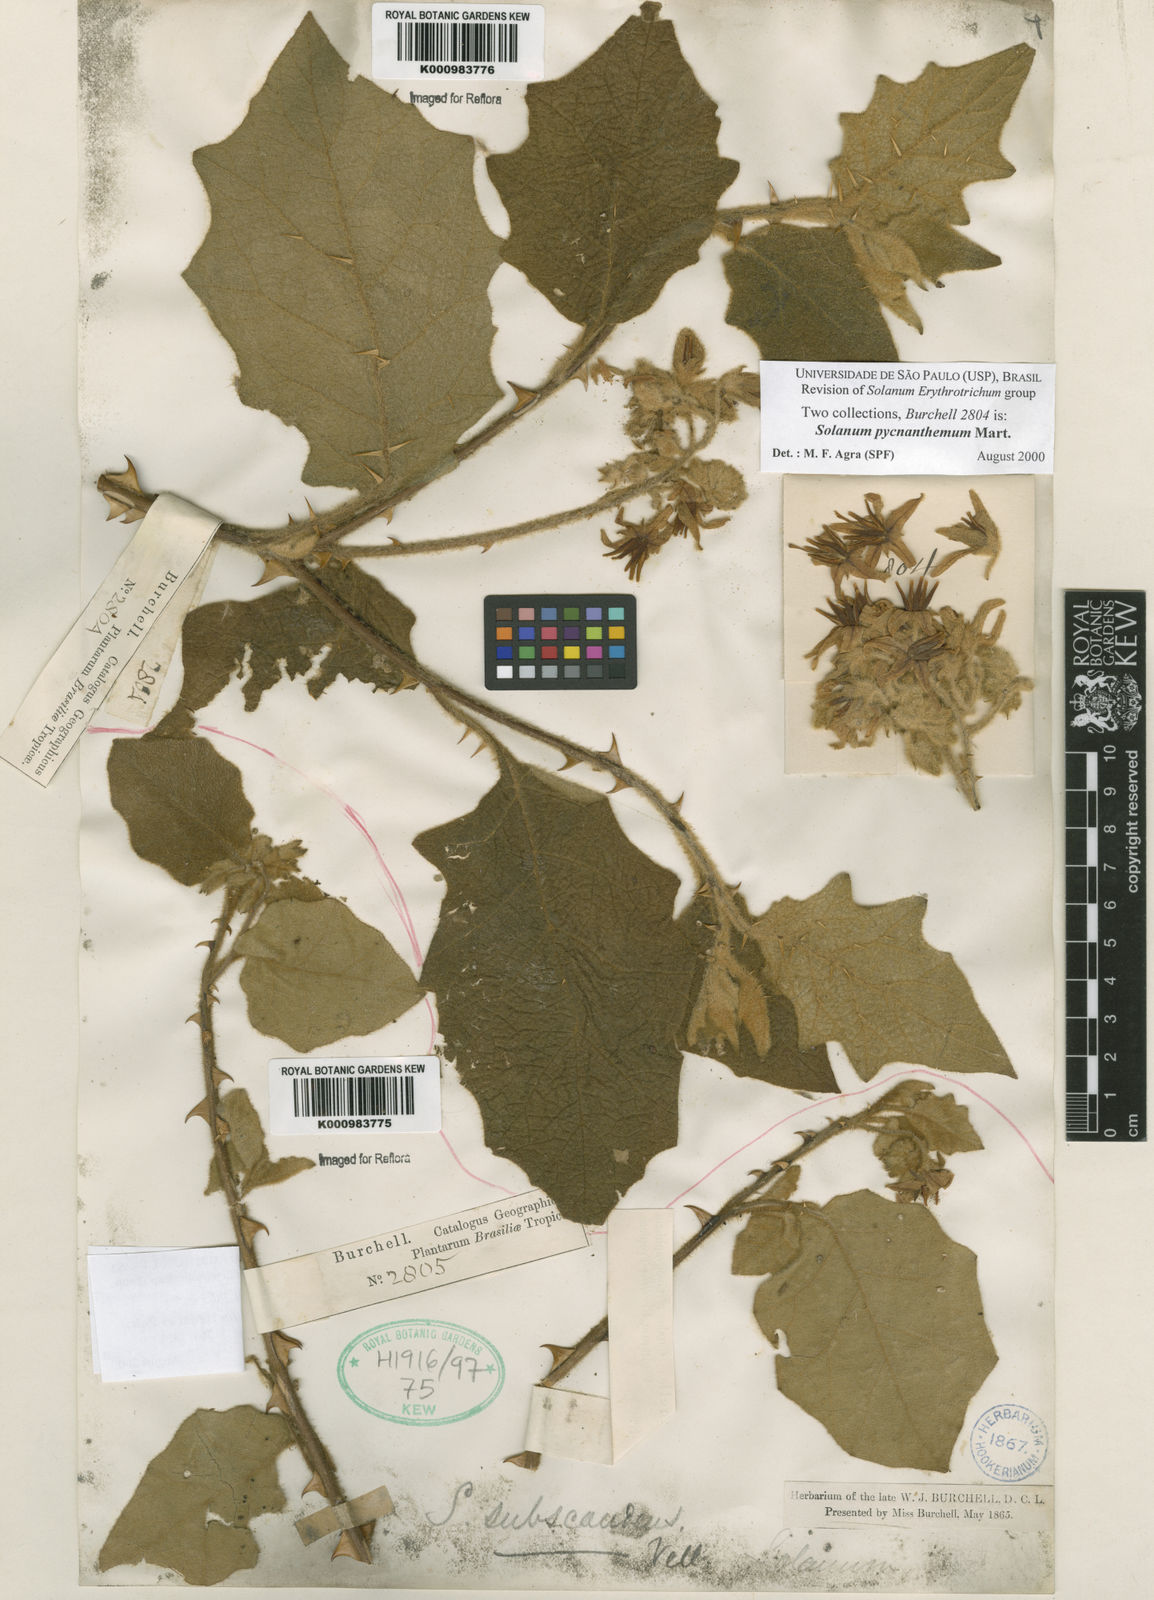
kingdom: Plantae
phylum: Tracheophyta
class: Magnoliopsida
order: Solanales
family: Solanaceae
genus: Solanum
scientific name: Solanum pycnanthemum
